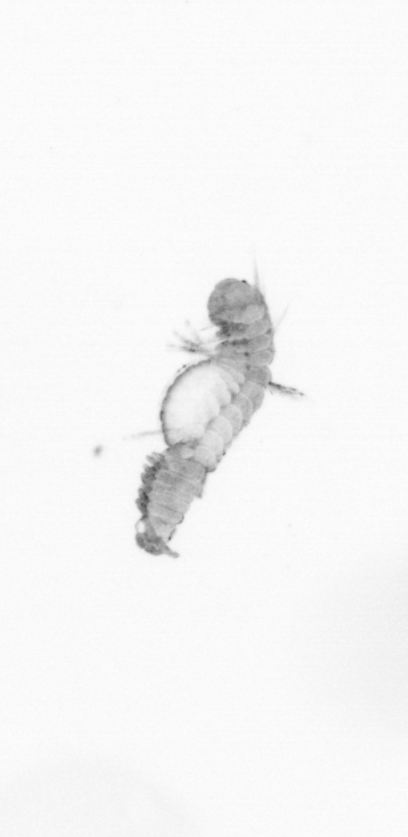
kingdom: Animalia
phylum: Annelida
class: Polychaeta
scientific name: Polychaeta
